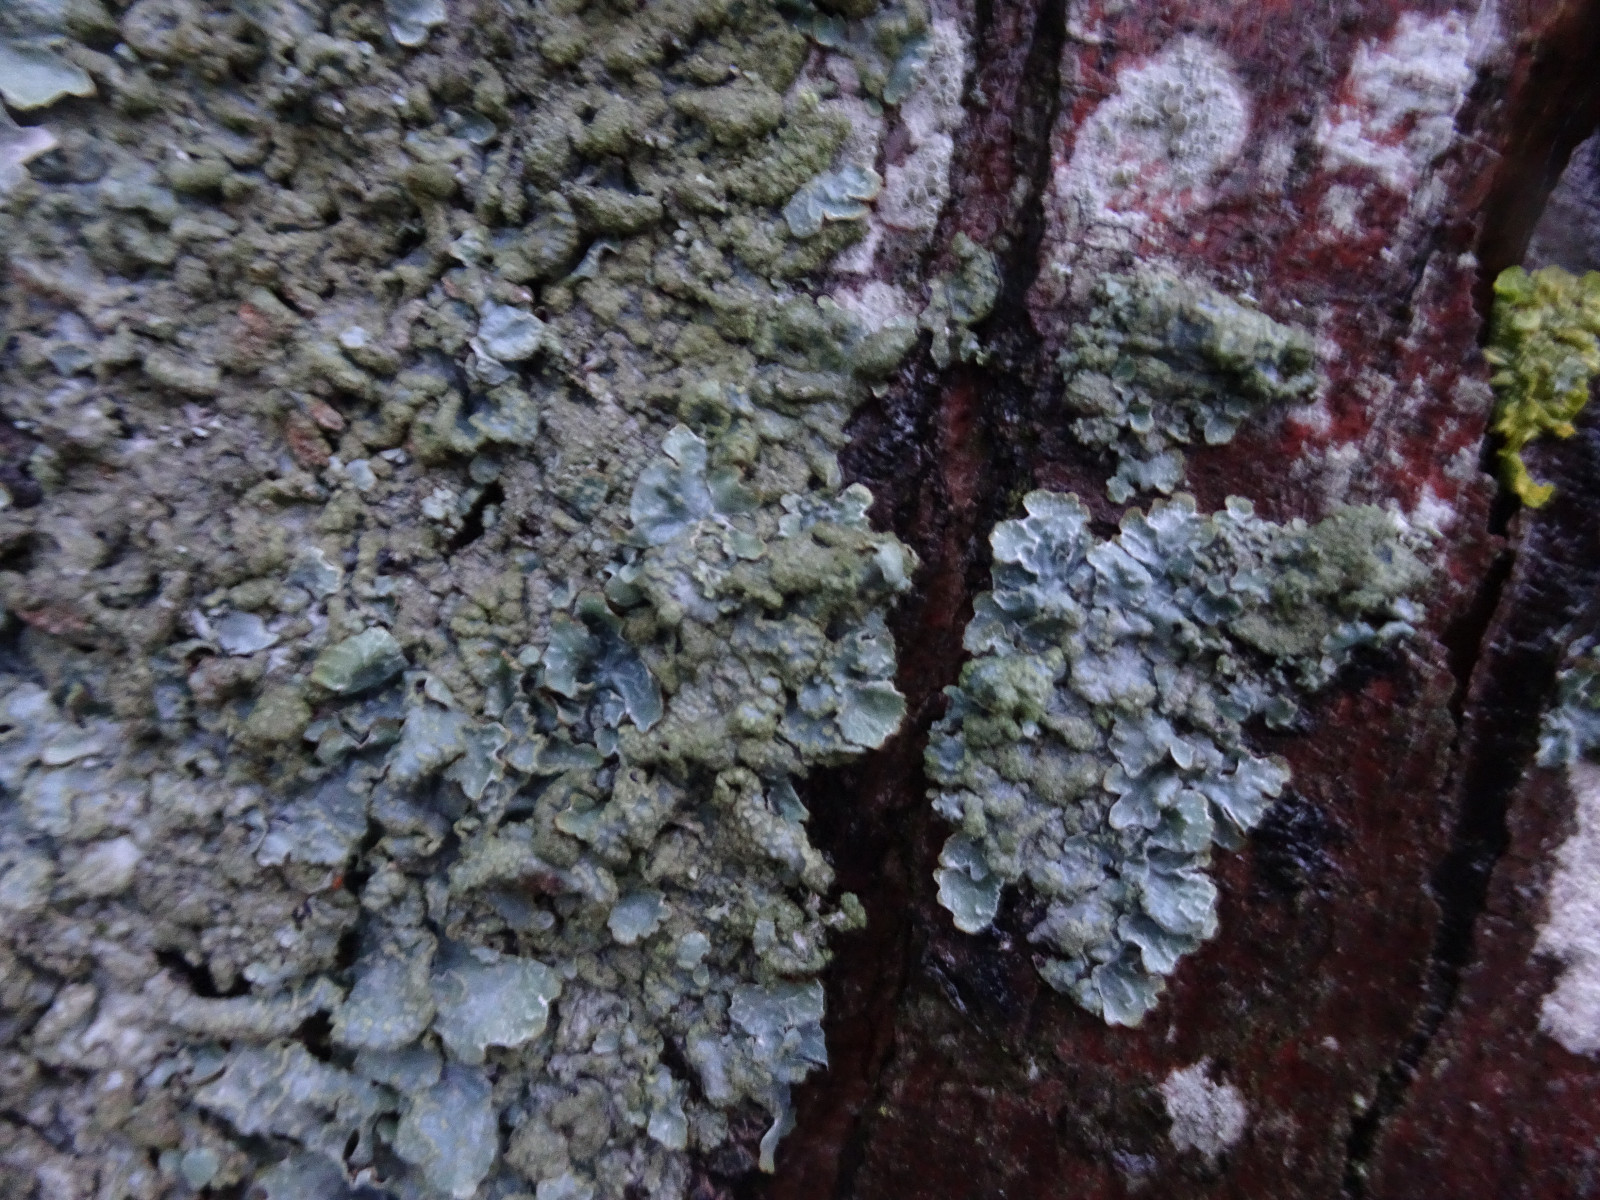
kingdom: Fungi
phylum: Ascomycota
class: Lecanoromycetes
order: Lecanorales
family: Parmeliaceae
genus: Parmelia
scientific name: Parmelia sulcata
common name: rynket skållav
